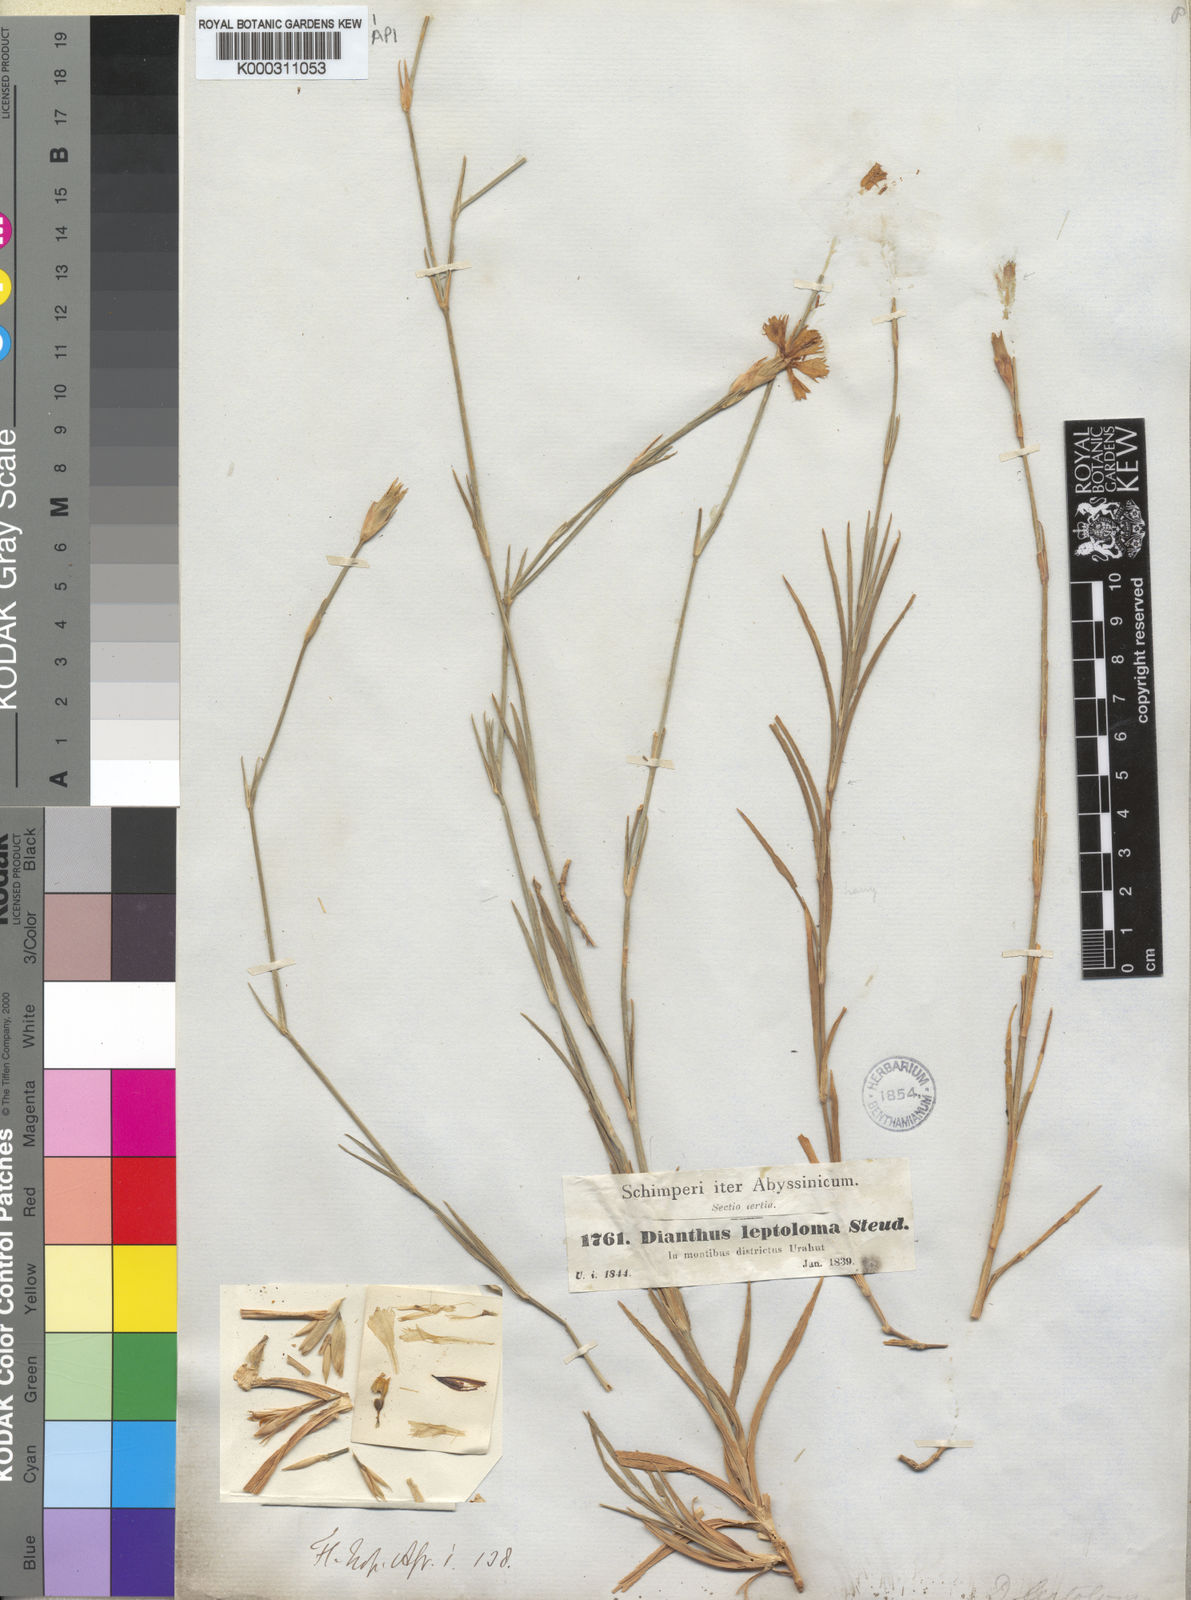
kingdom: Plantae
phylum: Tracheophyta
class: Magnoliopsida
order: Caryophyllales
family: Caryophyllaceae
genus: Dianthus
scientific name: Dianthus leptoloma
